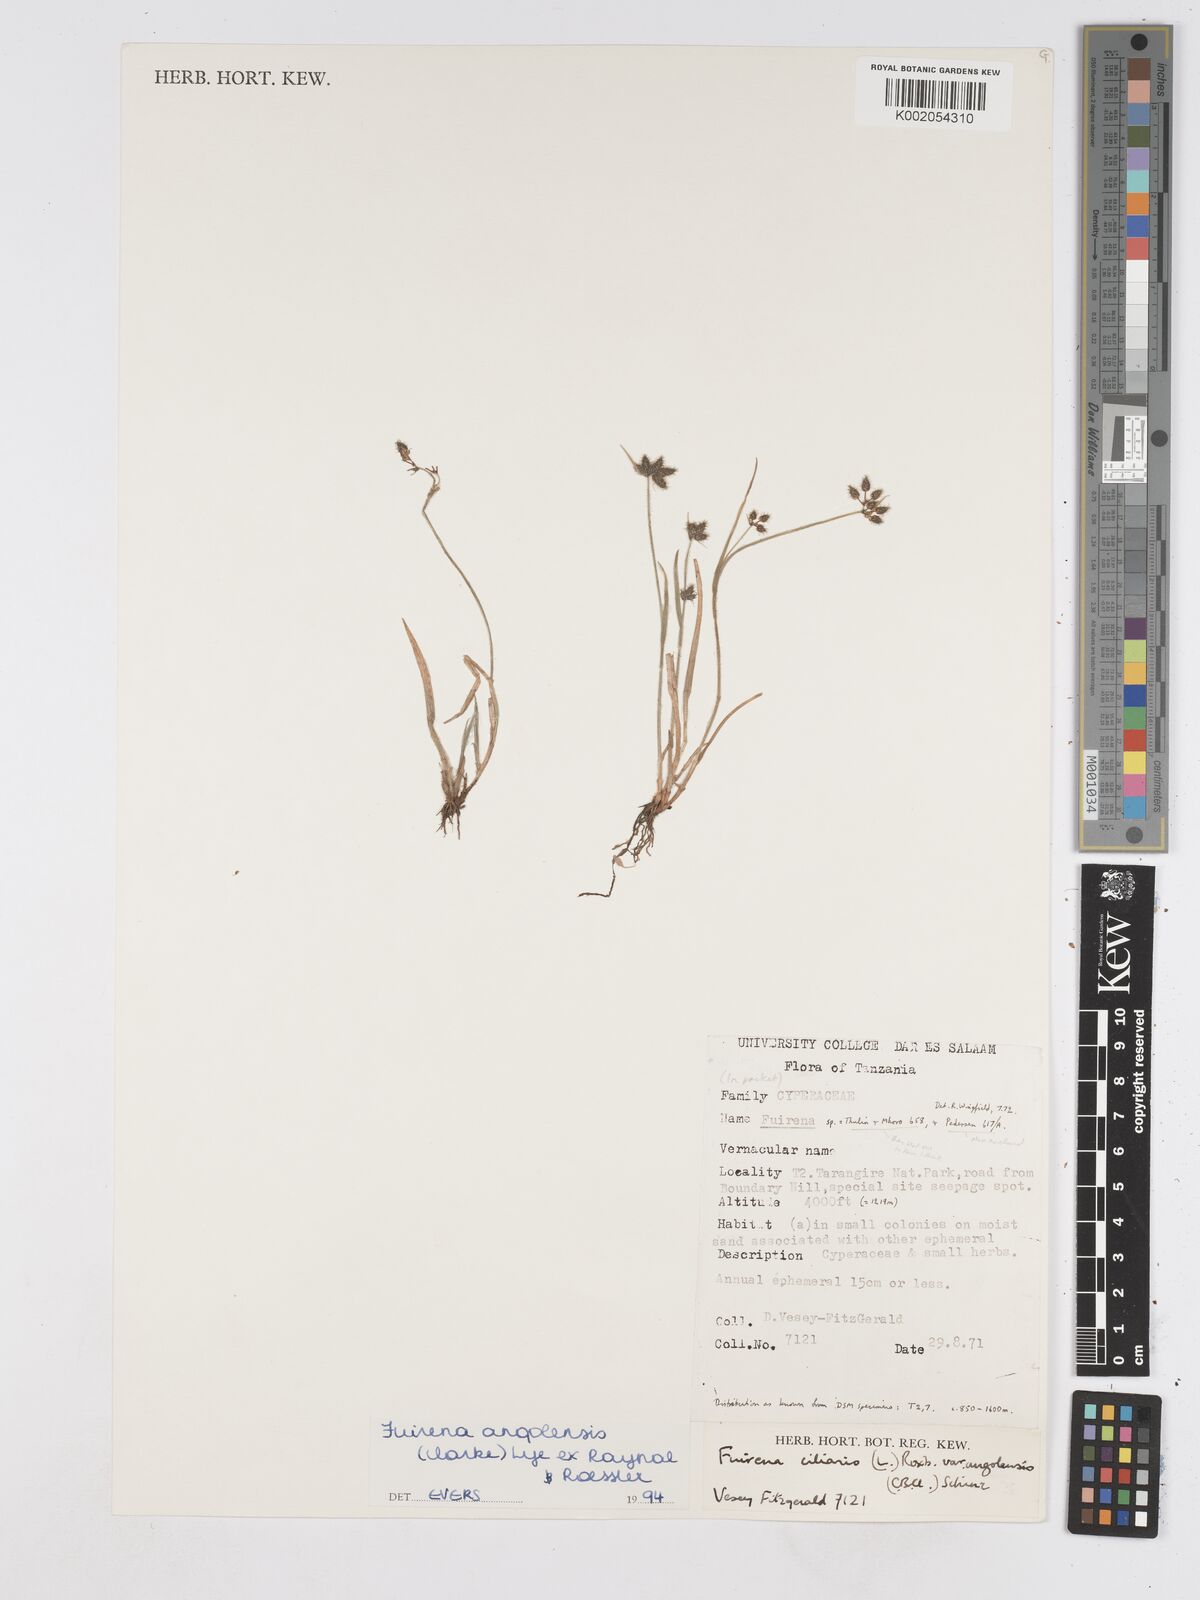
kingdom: Plantae
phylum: Tracheophyta
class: Liliopsida
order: Poales
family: Cyperaceae
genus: Fuirena
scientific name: Fuirena angolensis
